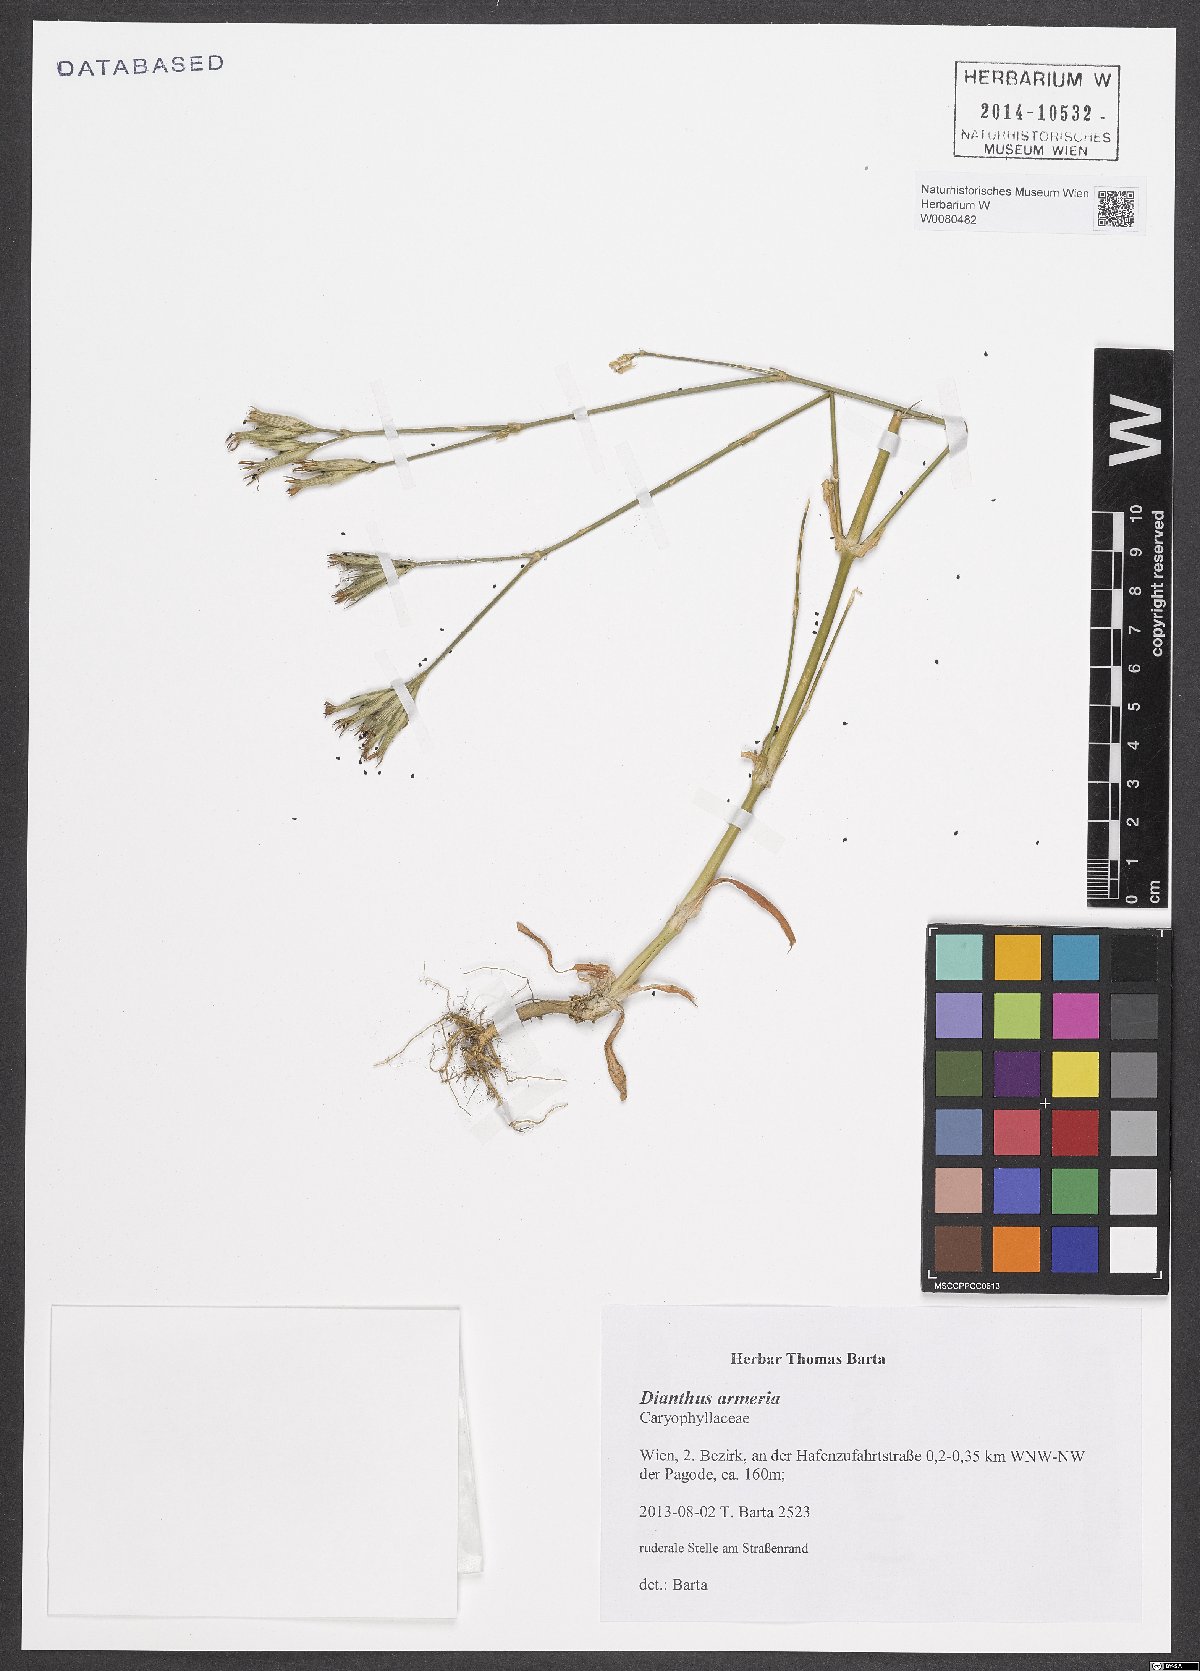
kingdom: Plantae
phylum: Tracheophyta
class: Magnoliopsida
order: Caryophyllales
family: Caryophyllaceae
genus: Dianthus
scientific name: Dianthus armeria
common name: Deptford pink
